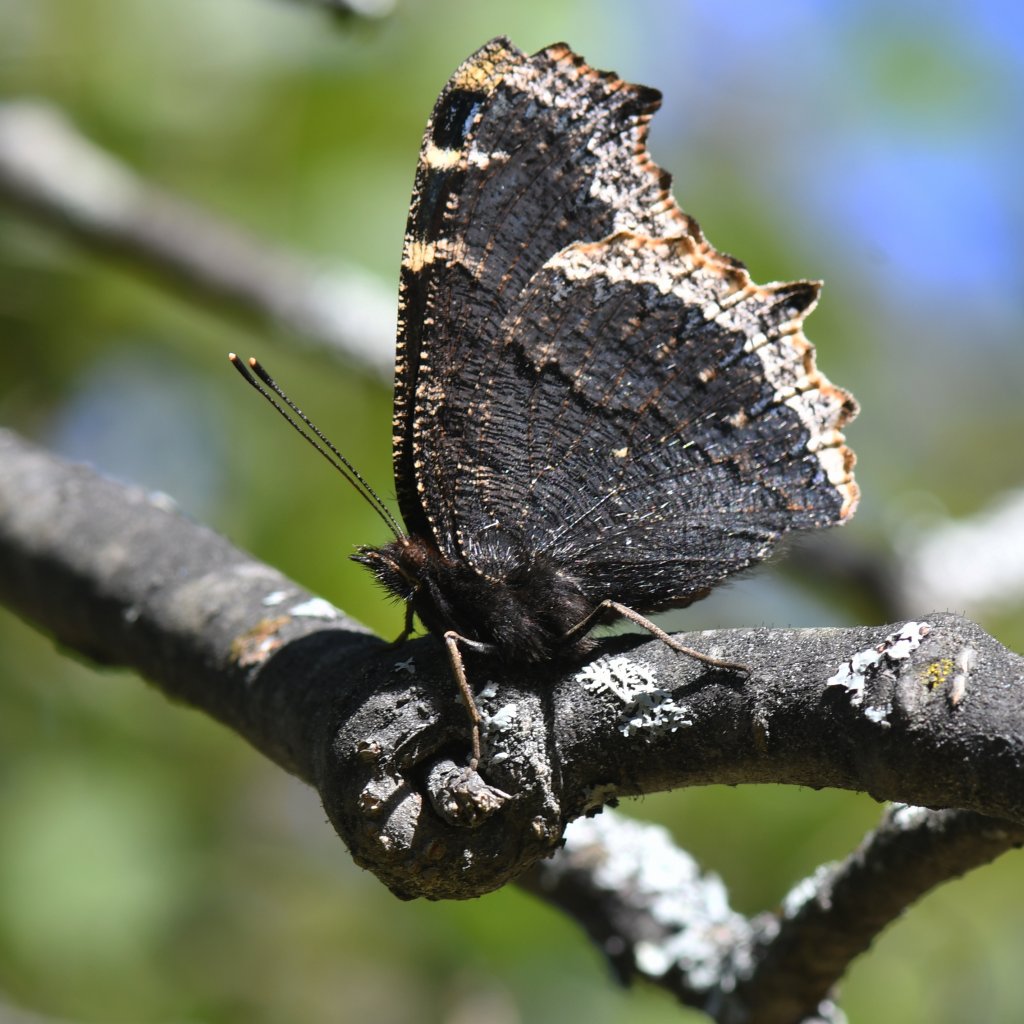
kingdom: Animalia
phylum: Arthropoda
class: Insecta
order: Lepidoptera
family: Nymphalidae
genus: Nymphalis
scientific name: Nymphalis antiopa
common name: Mourning Cloak
